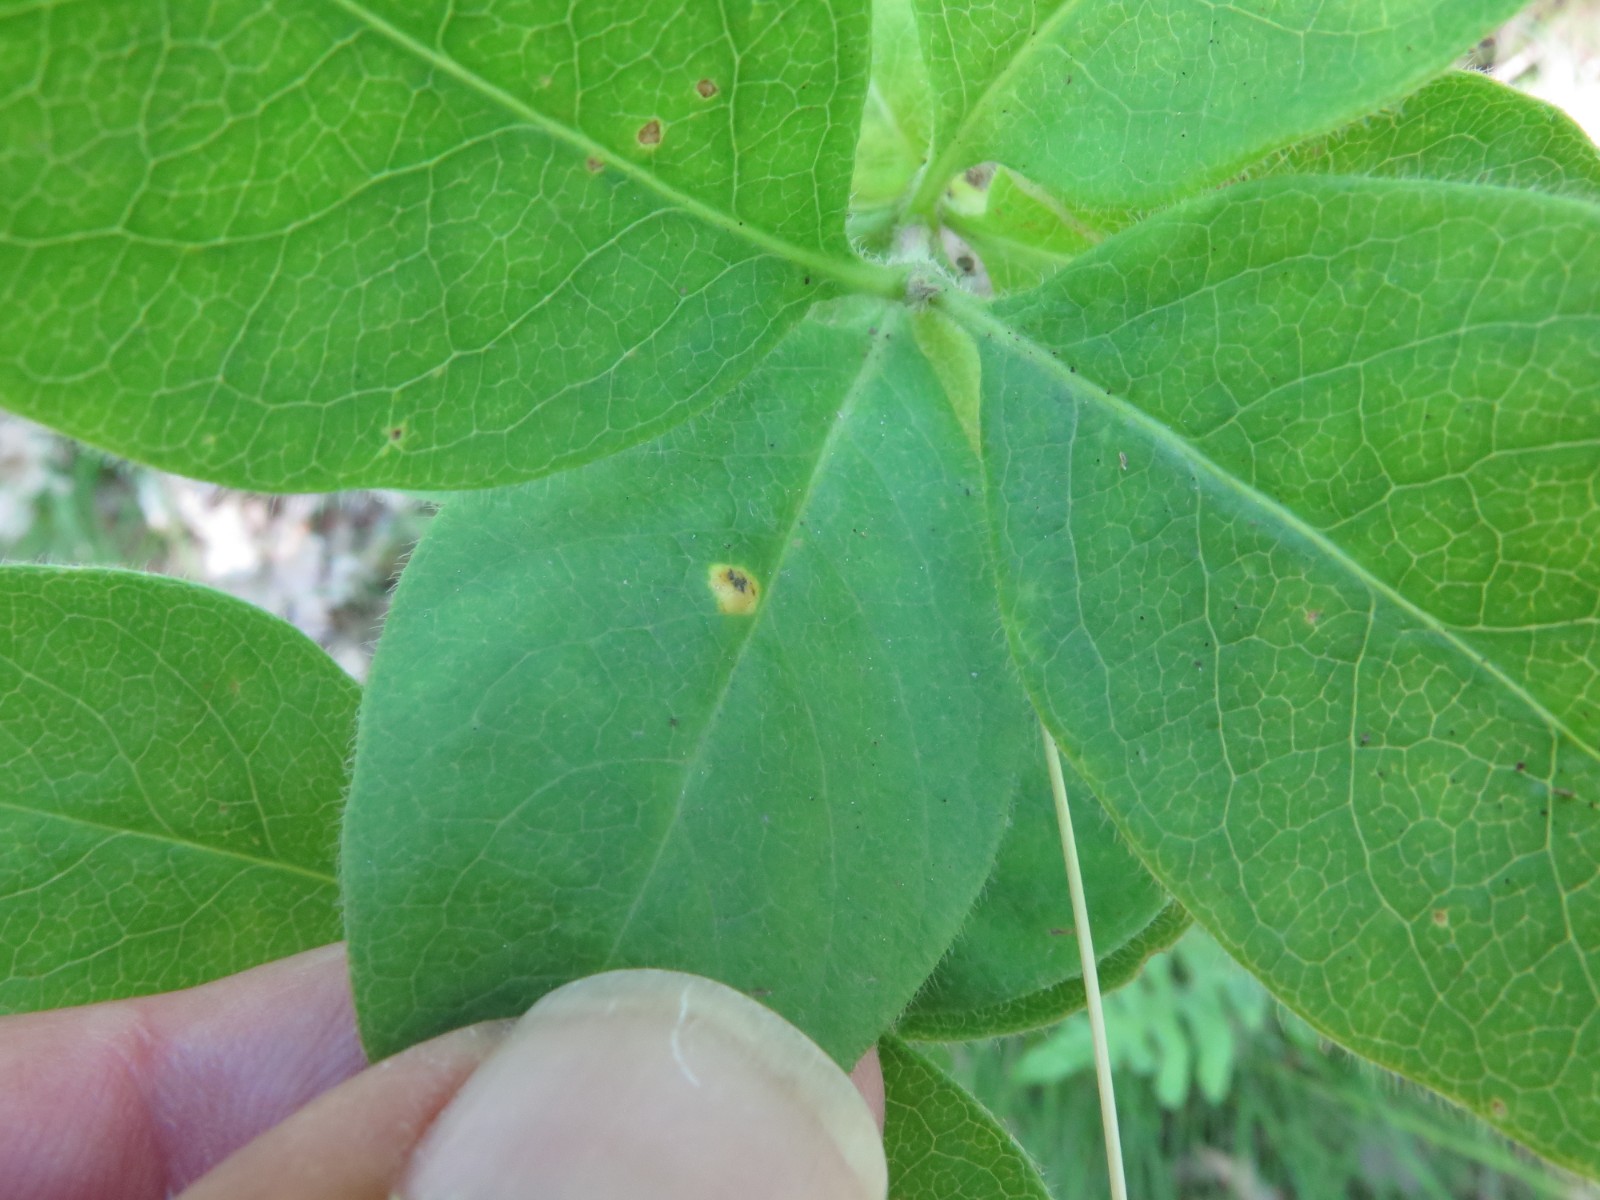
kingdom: Fungi
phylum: Basidiomycota
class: Pucciniomycetes
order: Pucciniales
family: Pucciniaceae
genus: Puccinia
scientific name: Puccinia festucae
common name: gedeblad-tvecellerust
